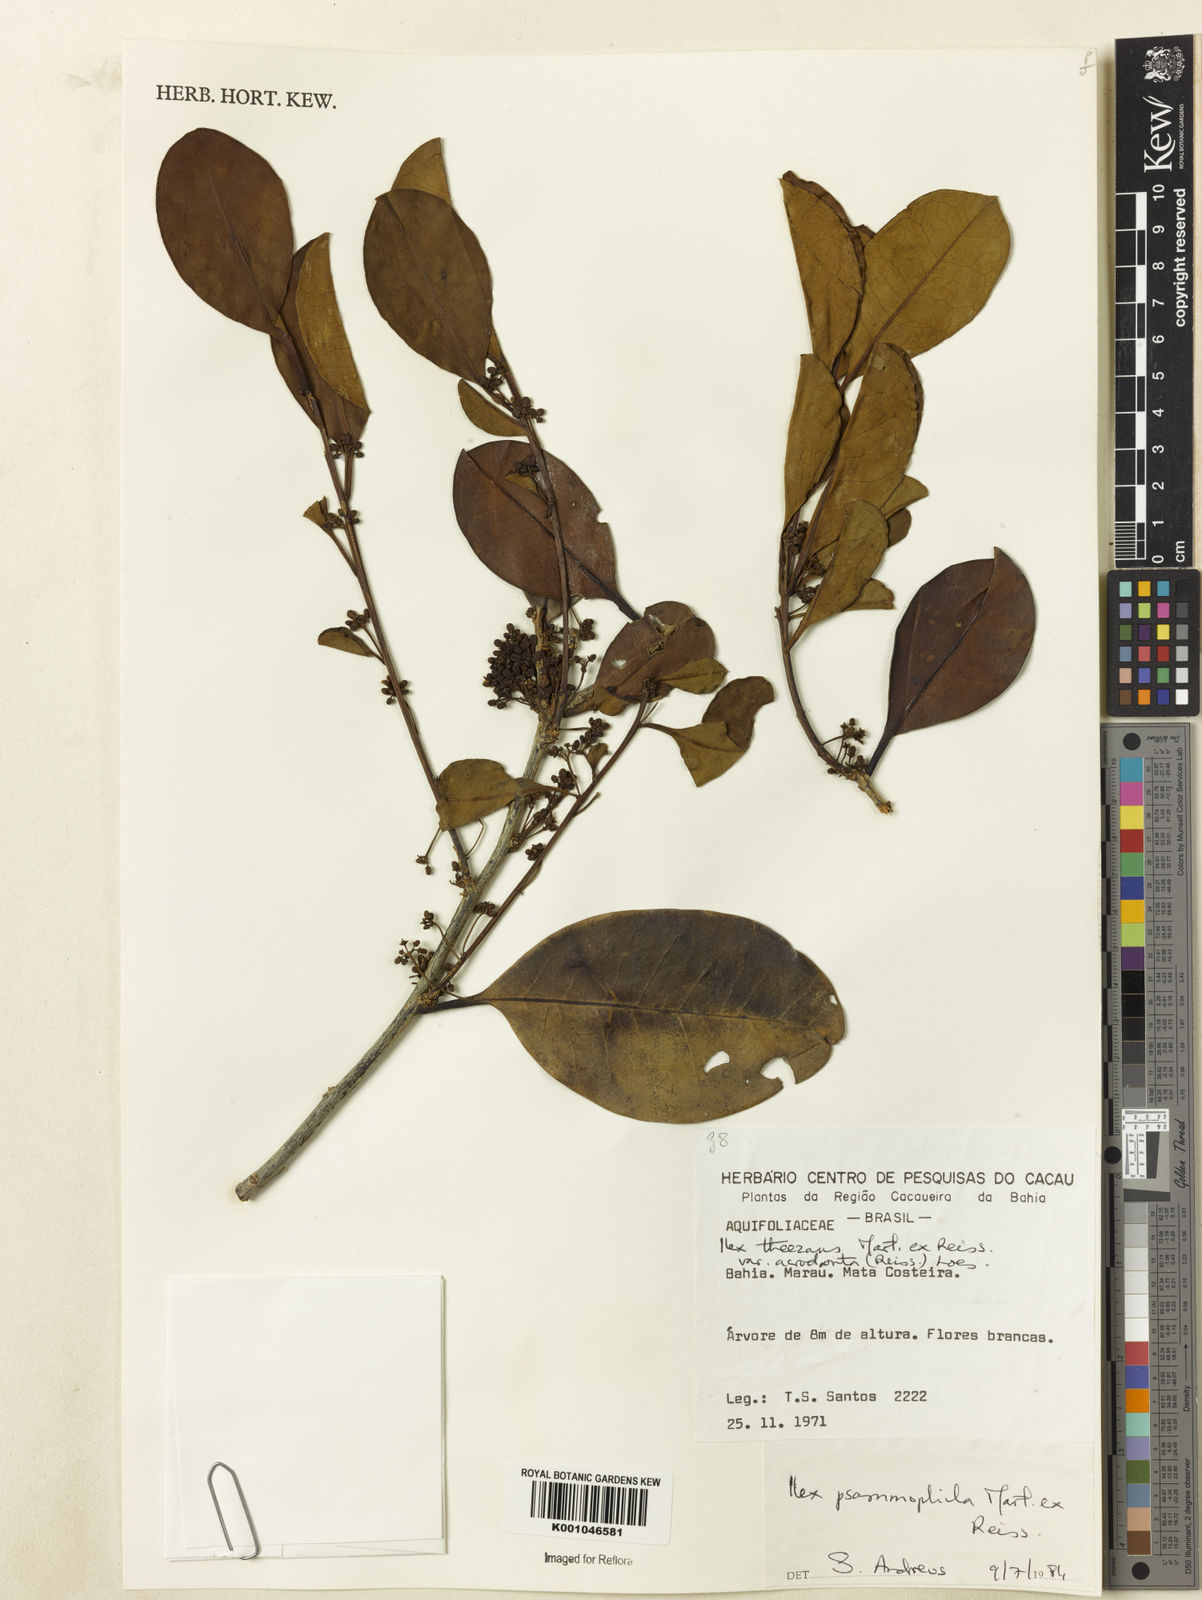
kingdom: Plantae
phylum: Tracheophyta
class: Magnoliopsida
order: Aquifoliales
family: Aquifoliaceae
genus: Ilex
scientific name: Ilex psammophila
